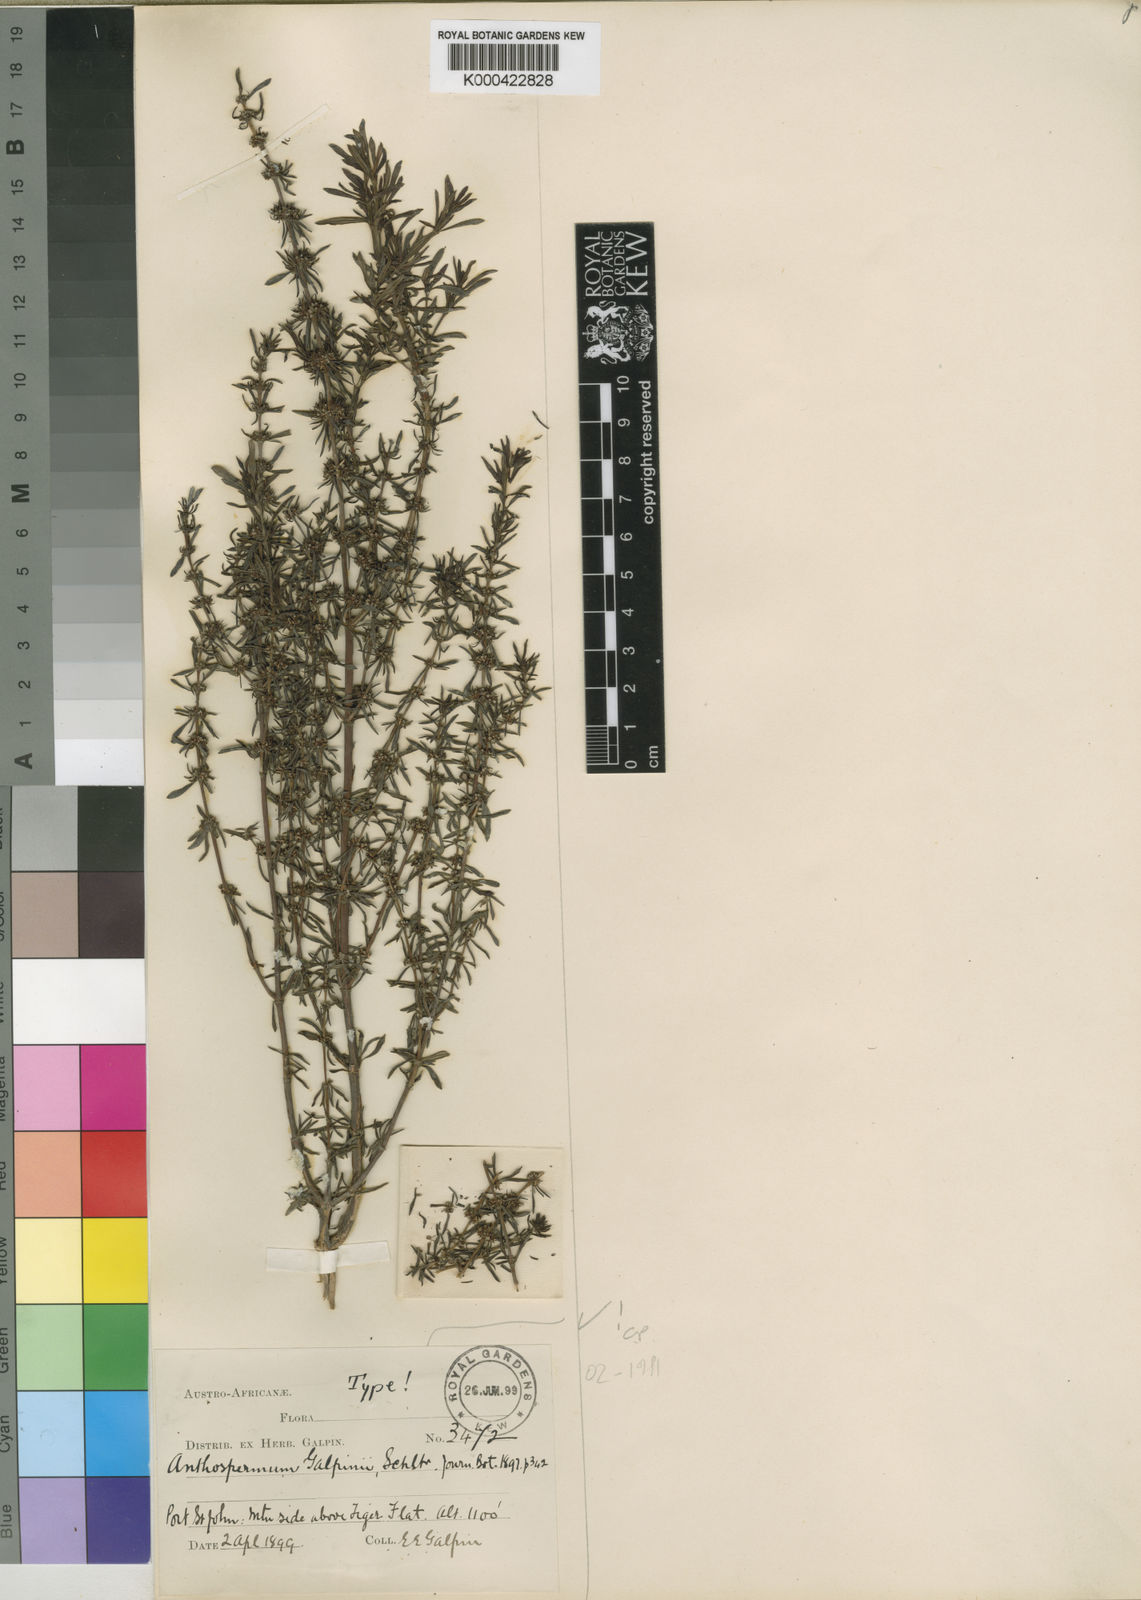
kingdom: Plantae
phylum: Tracheophyta
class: Magnoliopsida
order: Gentianales
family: Rubiaceae
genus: Anthospermum
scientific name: Anthospermum galpinii
